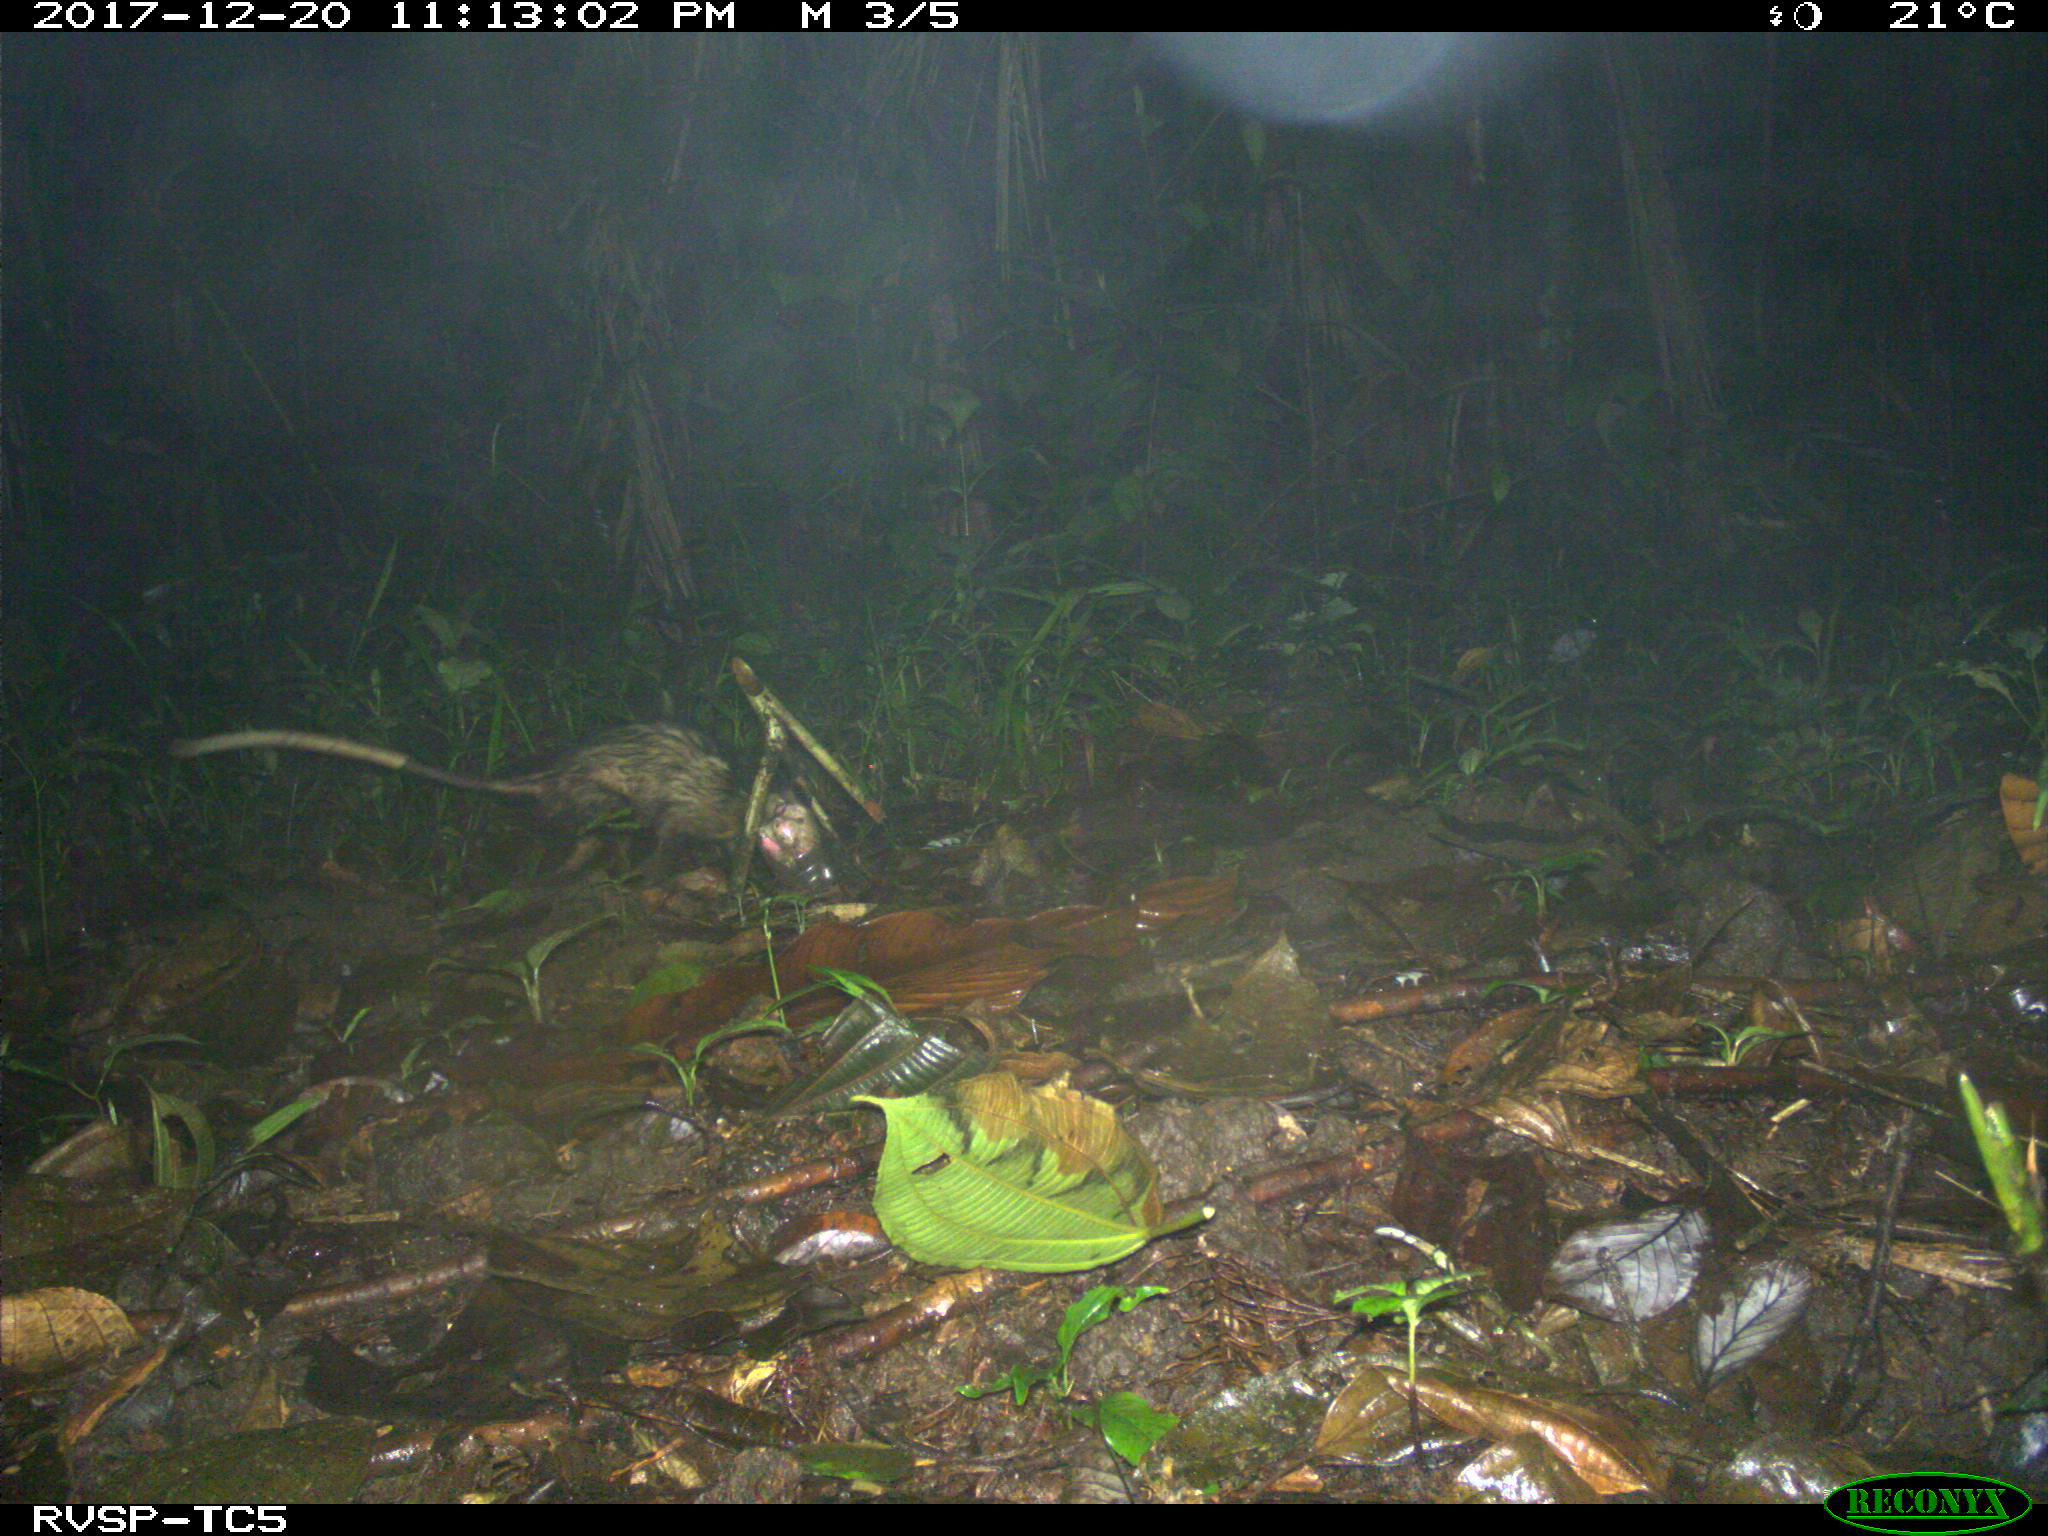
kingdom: Animalia
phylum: Chordata
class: Mammalia
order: Didelphimorphia
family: Didelphidae
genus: Didelphis
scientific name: Didelphis marsupialis
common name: Common opossum
